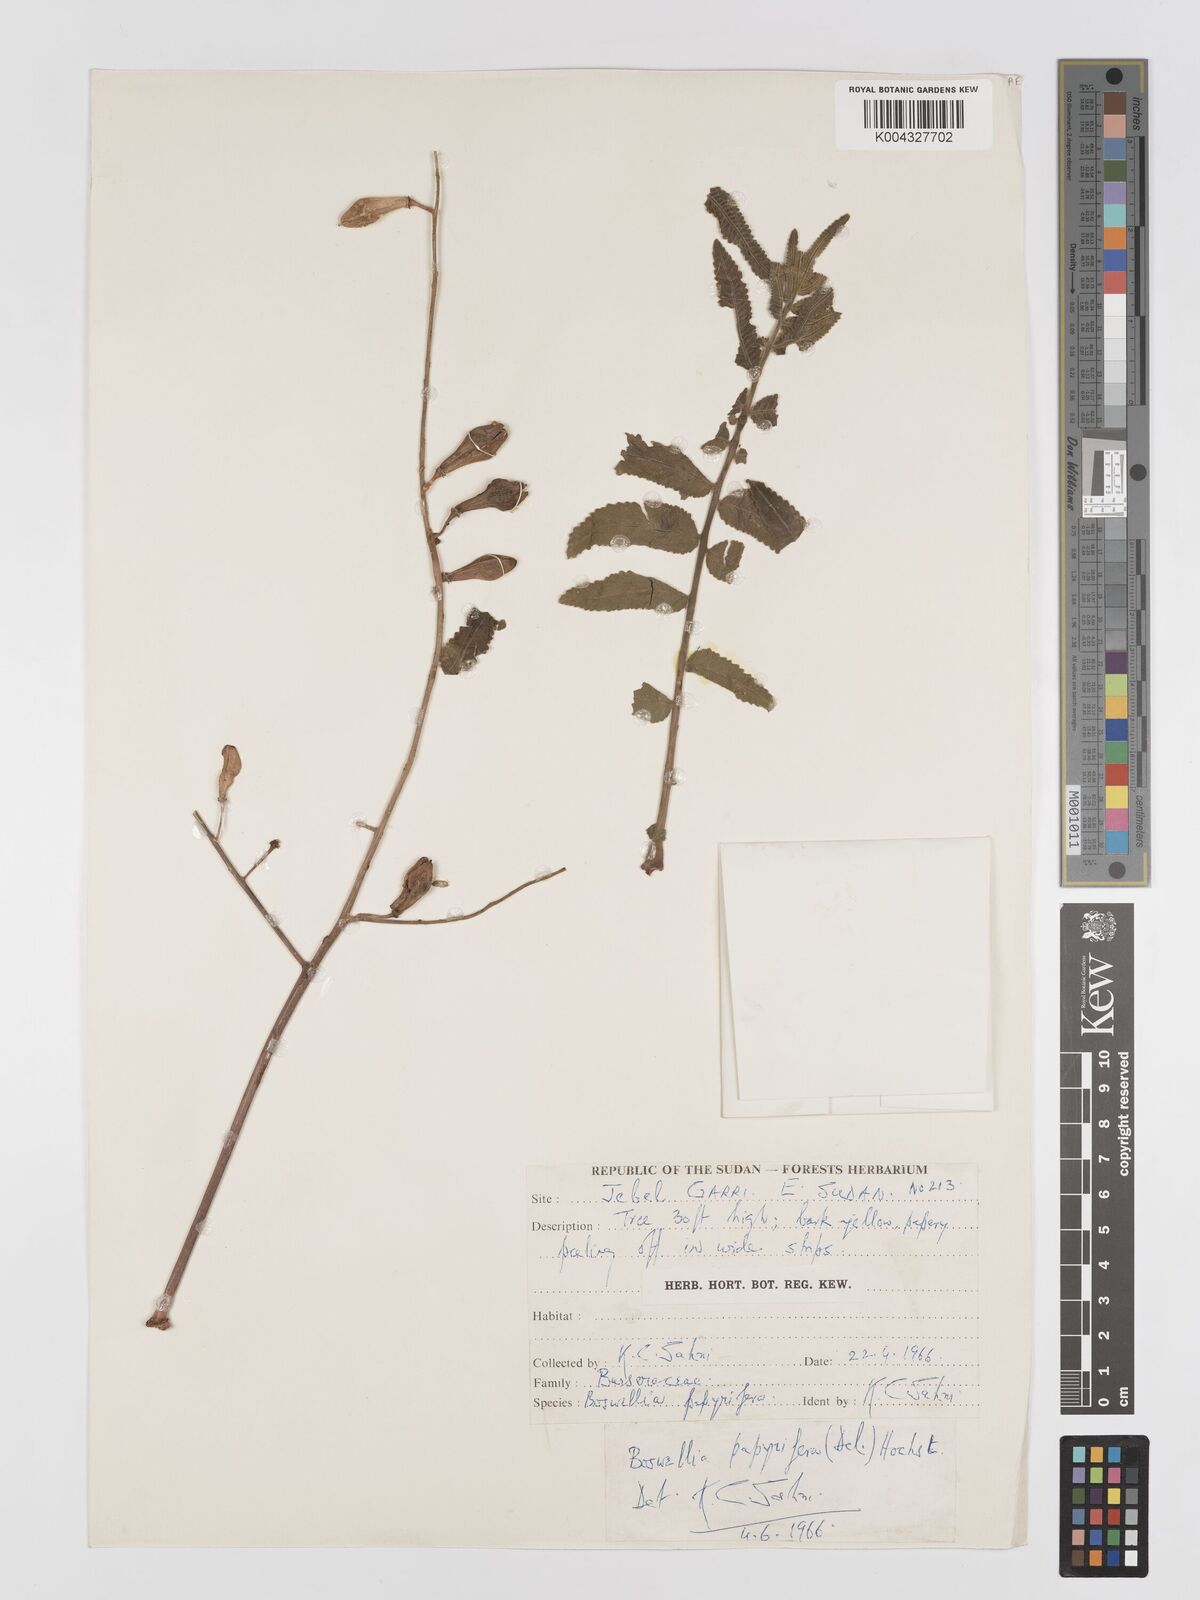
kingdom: Plantae
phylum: Tracheophyta
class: Magnoliopsida
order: Sapindales
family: Burseraceae
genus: Boswellia
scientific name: Boswellia papyrifera
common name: Sudanese frankincense
